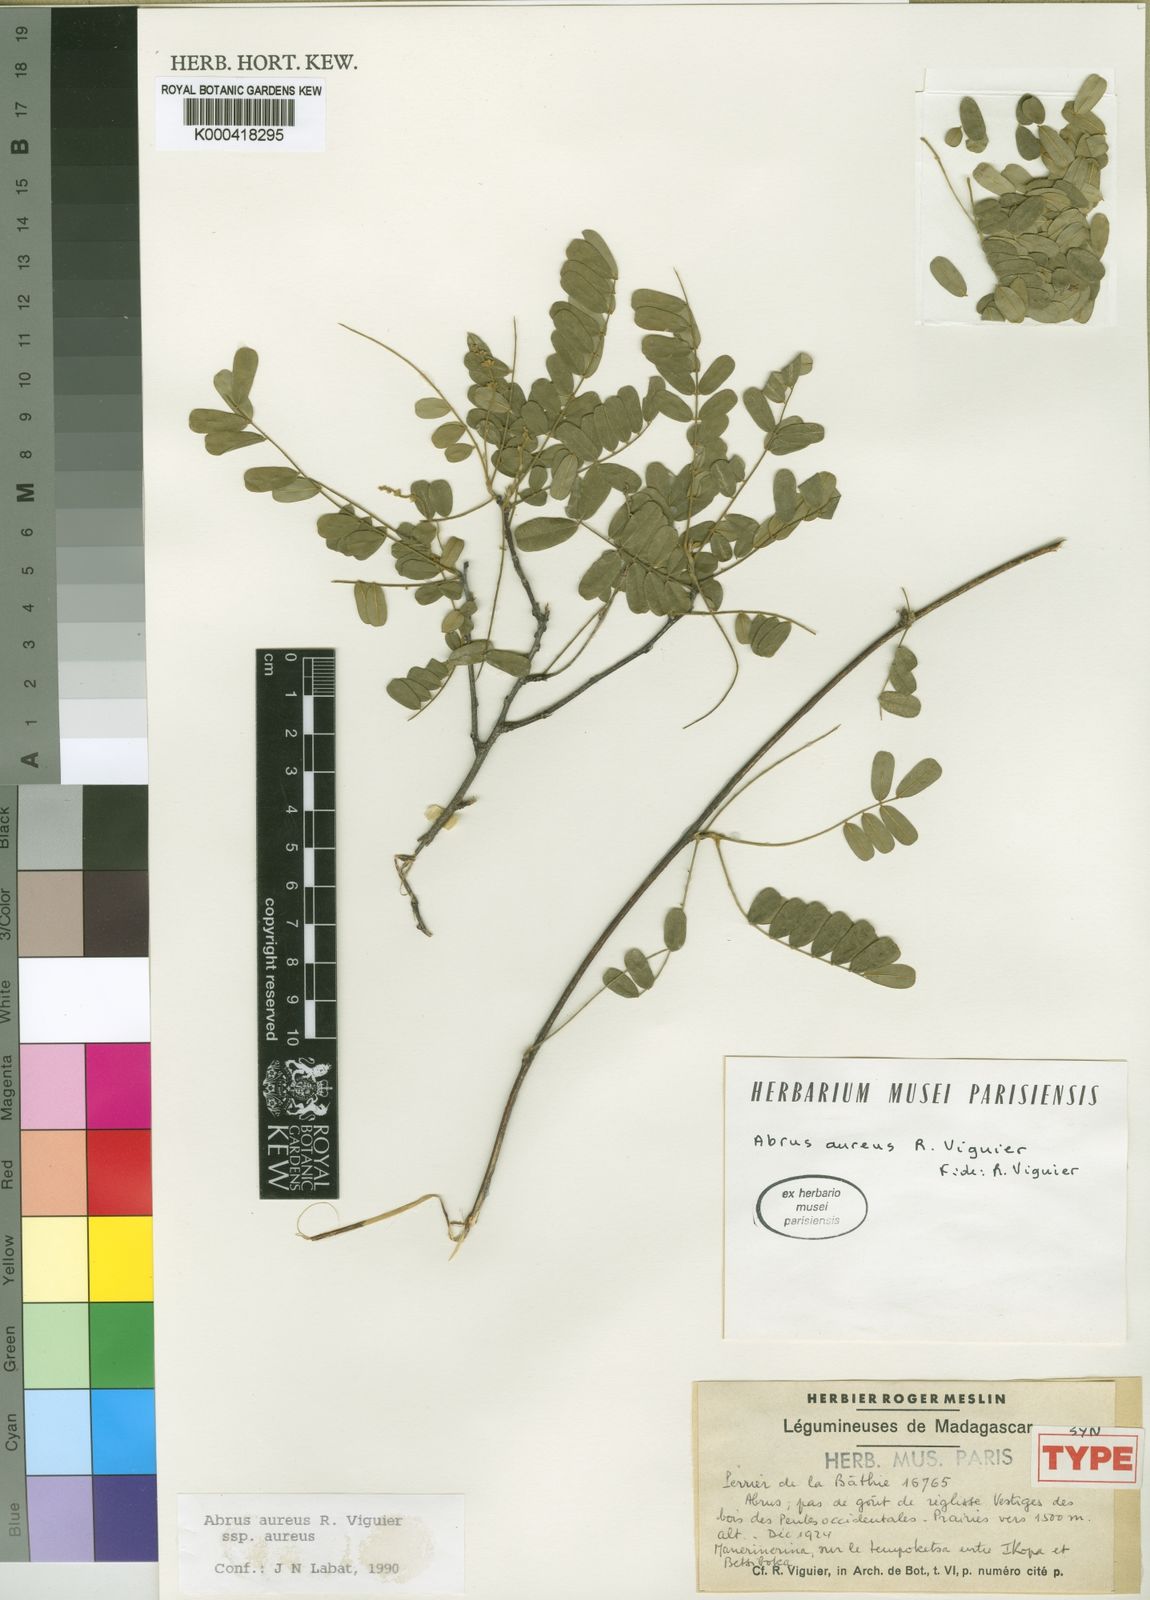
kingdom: Plantae
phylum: Tracheophyta
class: Magnoliopsida
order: Fabales
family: Fabaceae
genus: Abrus
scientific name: Abrus aureus
